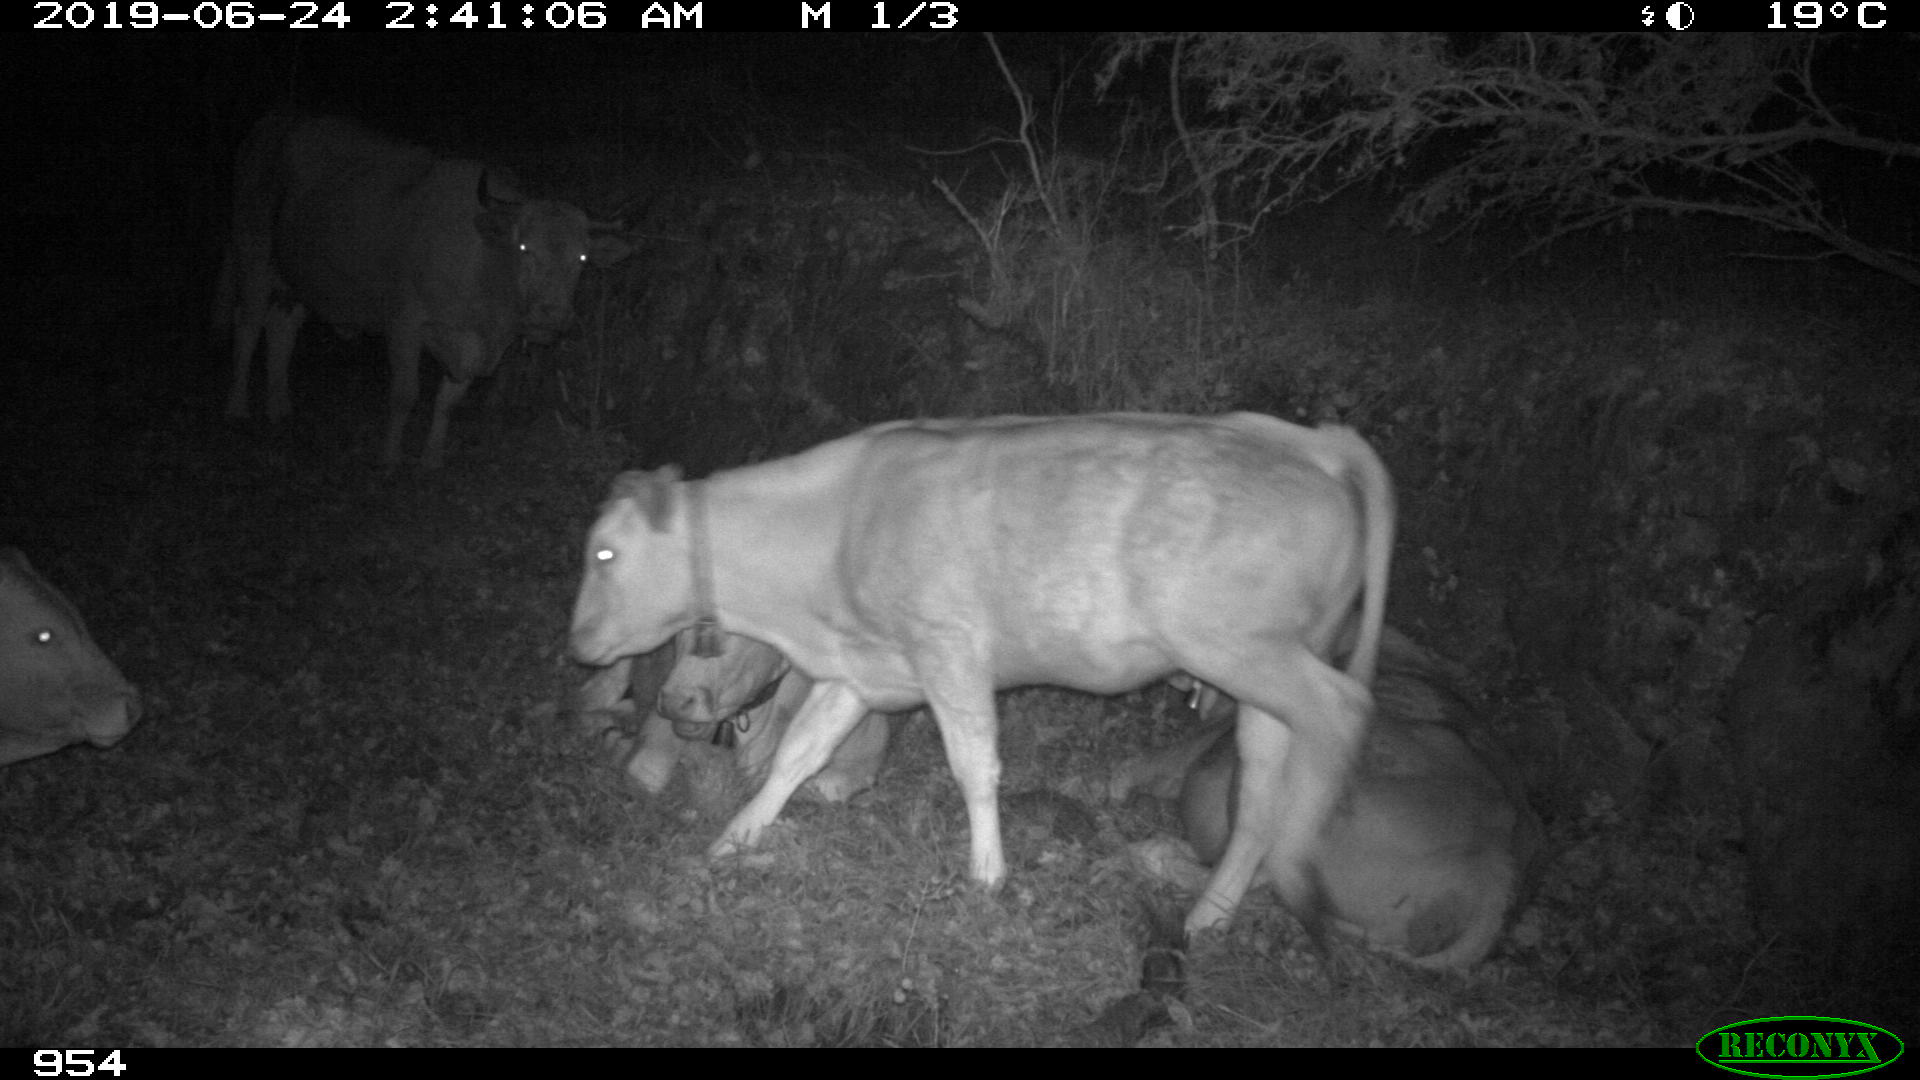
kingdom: Animalia
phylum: Chordata
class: Mammalia
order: Artiodactyla
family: Bovidae
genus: Bos
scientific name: Bos taurus
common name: Domesticated cattle
